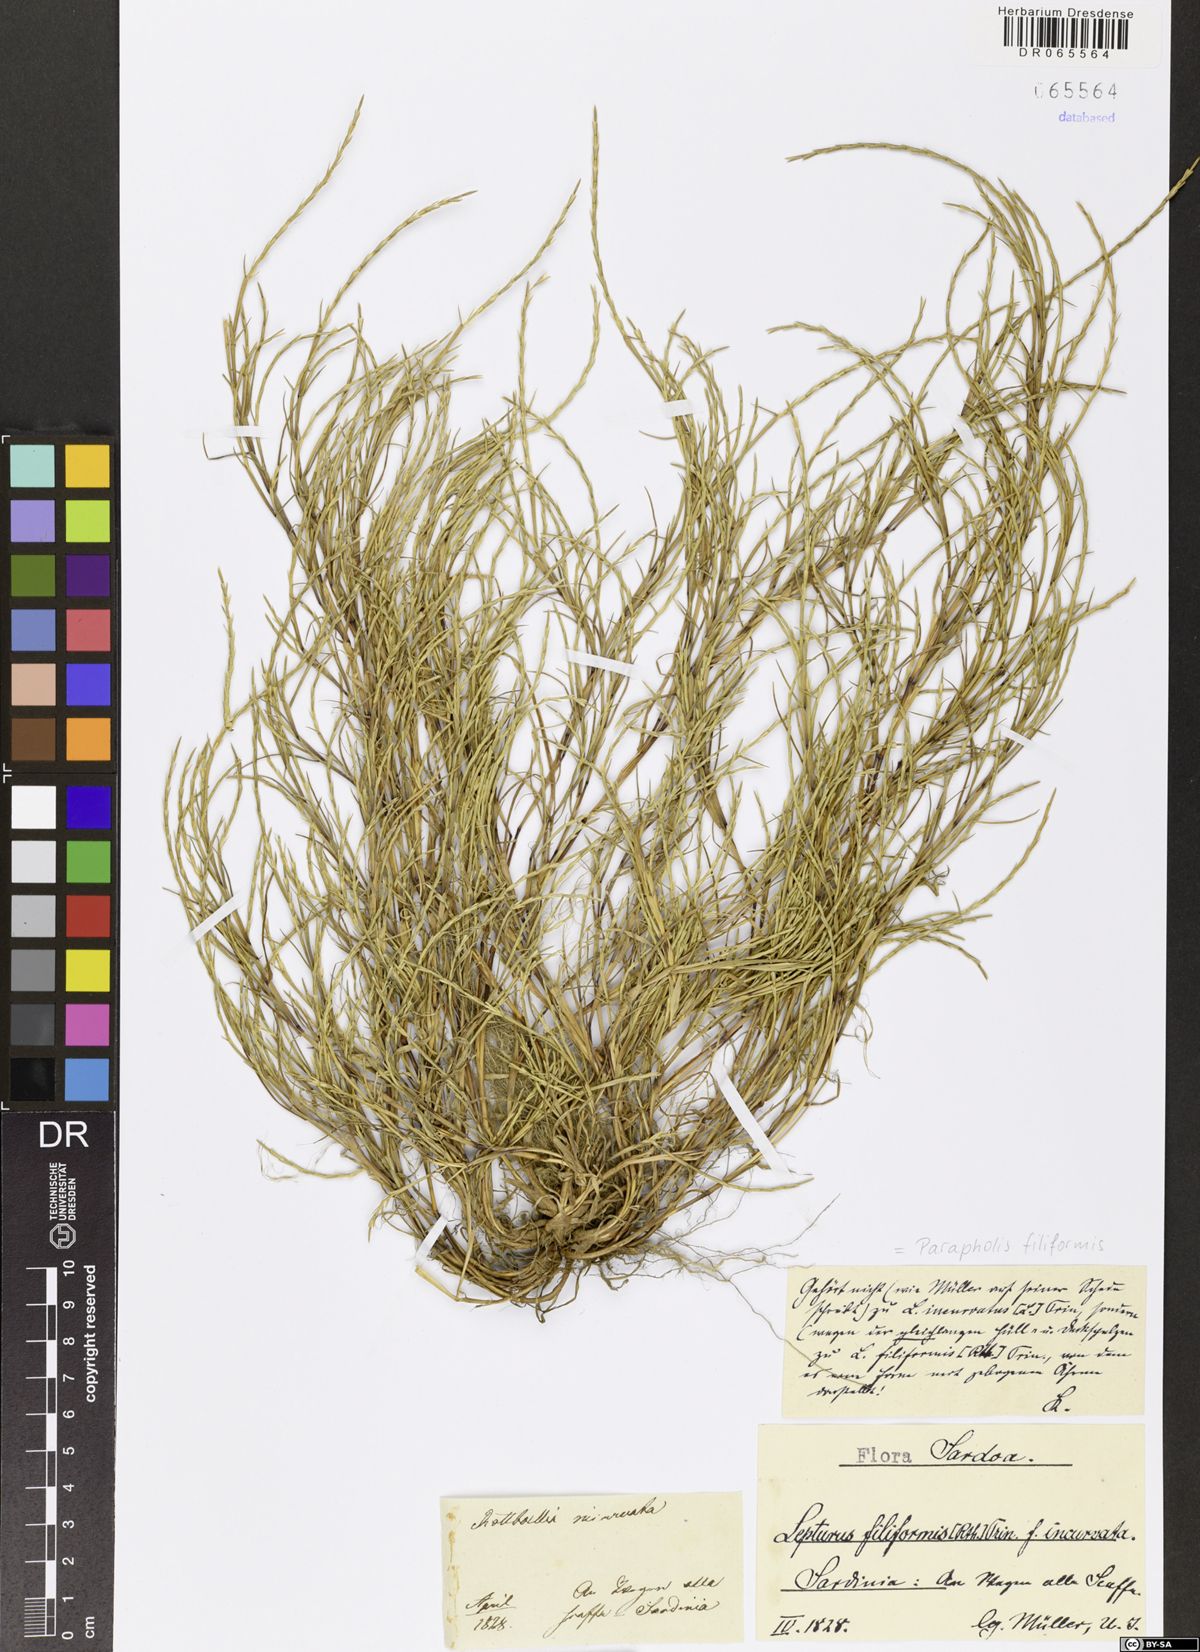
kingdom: Plantae
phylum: Tracheophyta
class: Liliopsida
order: Poales
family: Poaceae
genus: Parapholis
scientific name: Parapholis filiformis
